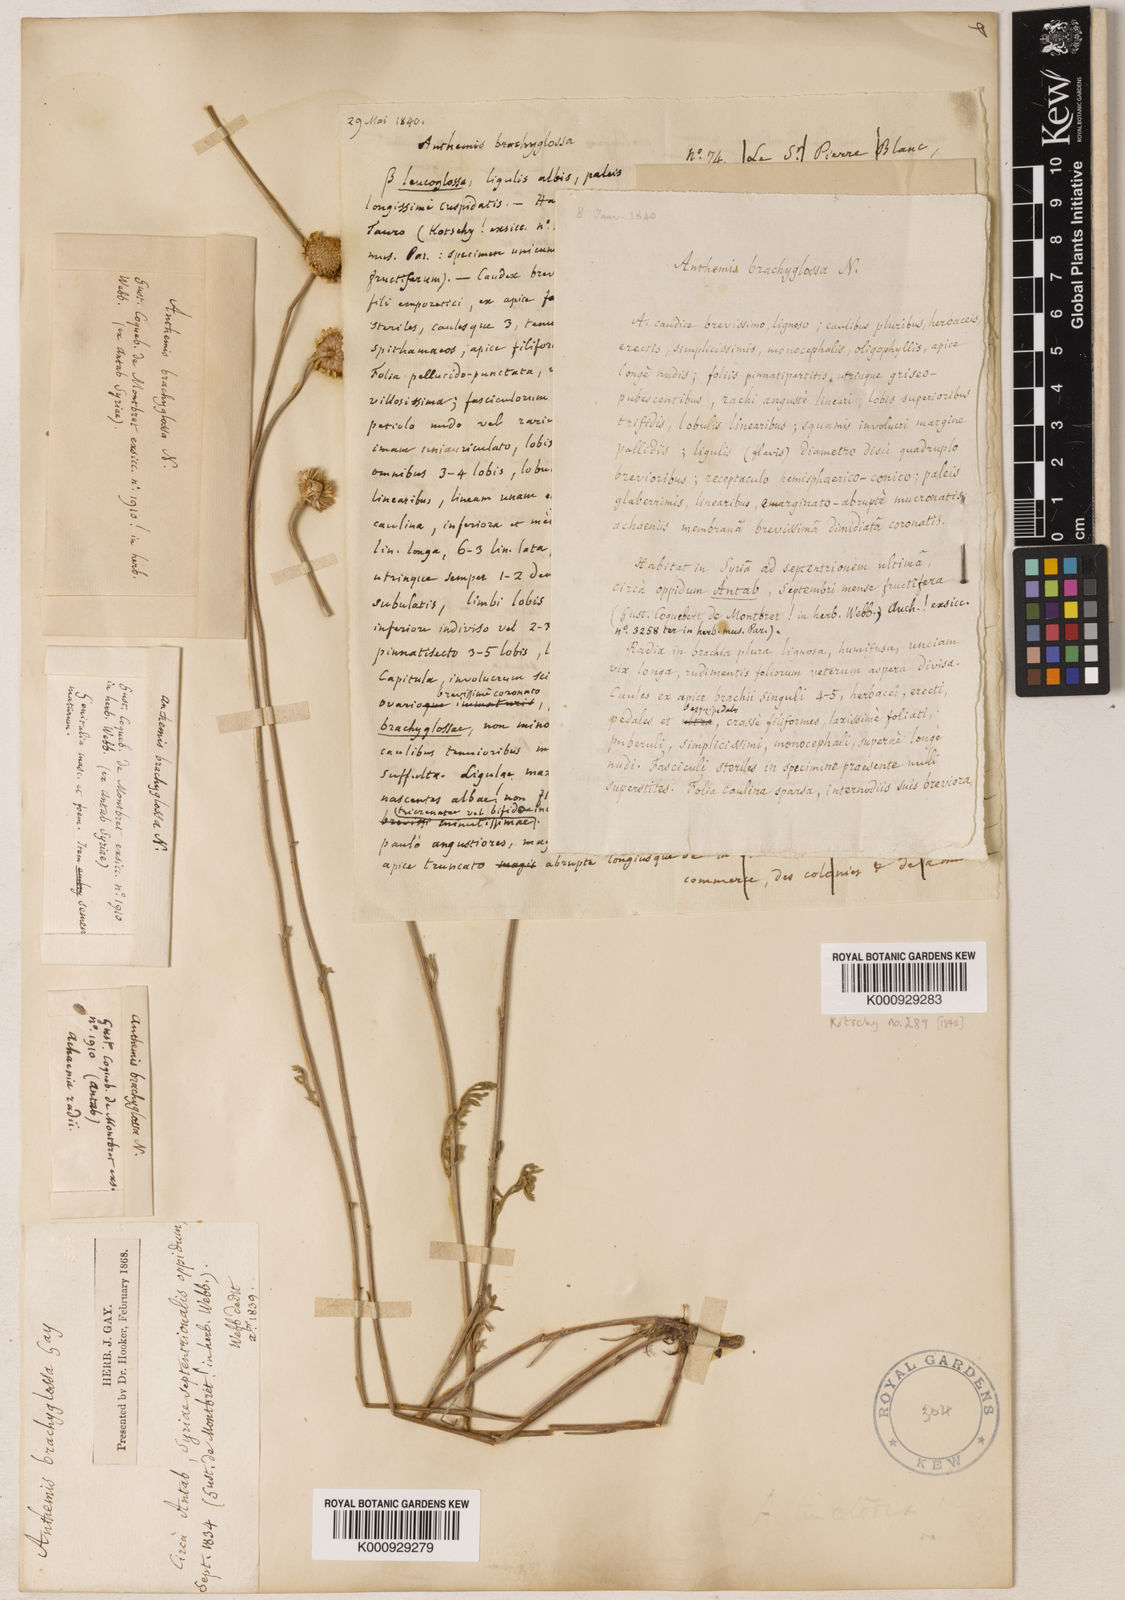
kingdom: Plantae
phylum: Tracheophyta
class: Magnoliopsida
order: Asterales
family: Asteraceae
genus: Anthemis
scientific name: Anthemis kotschyana
